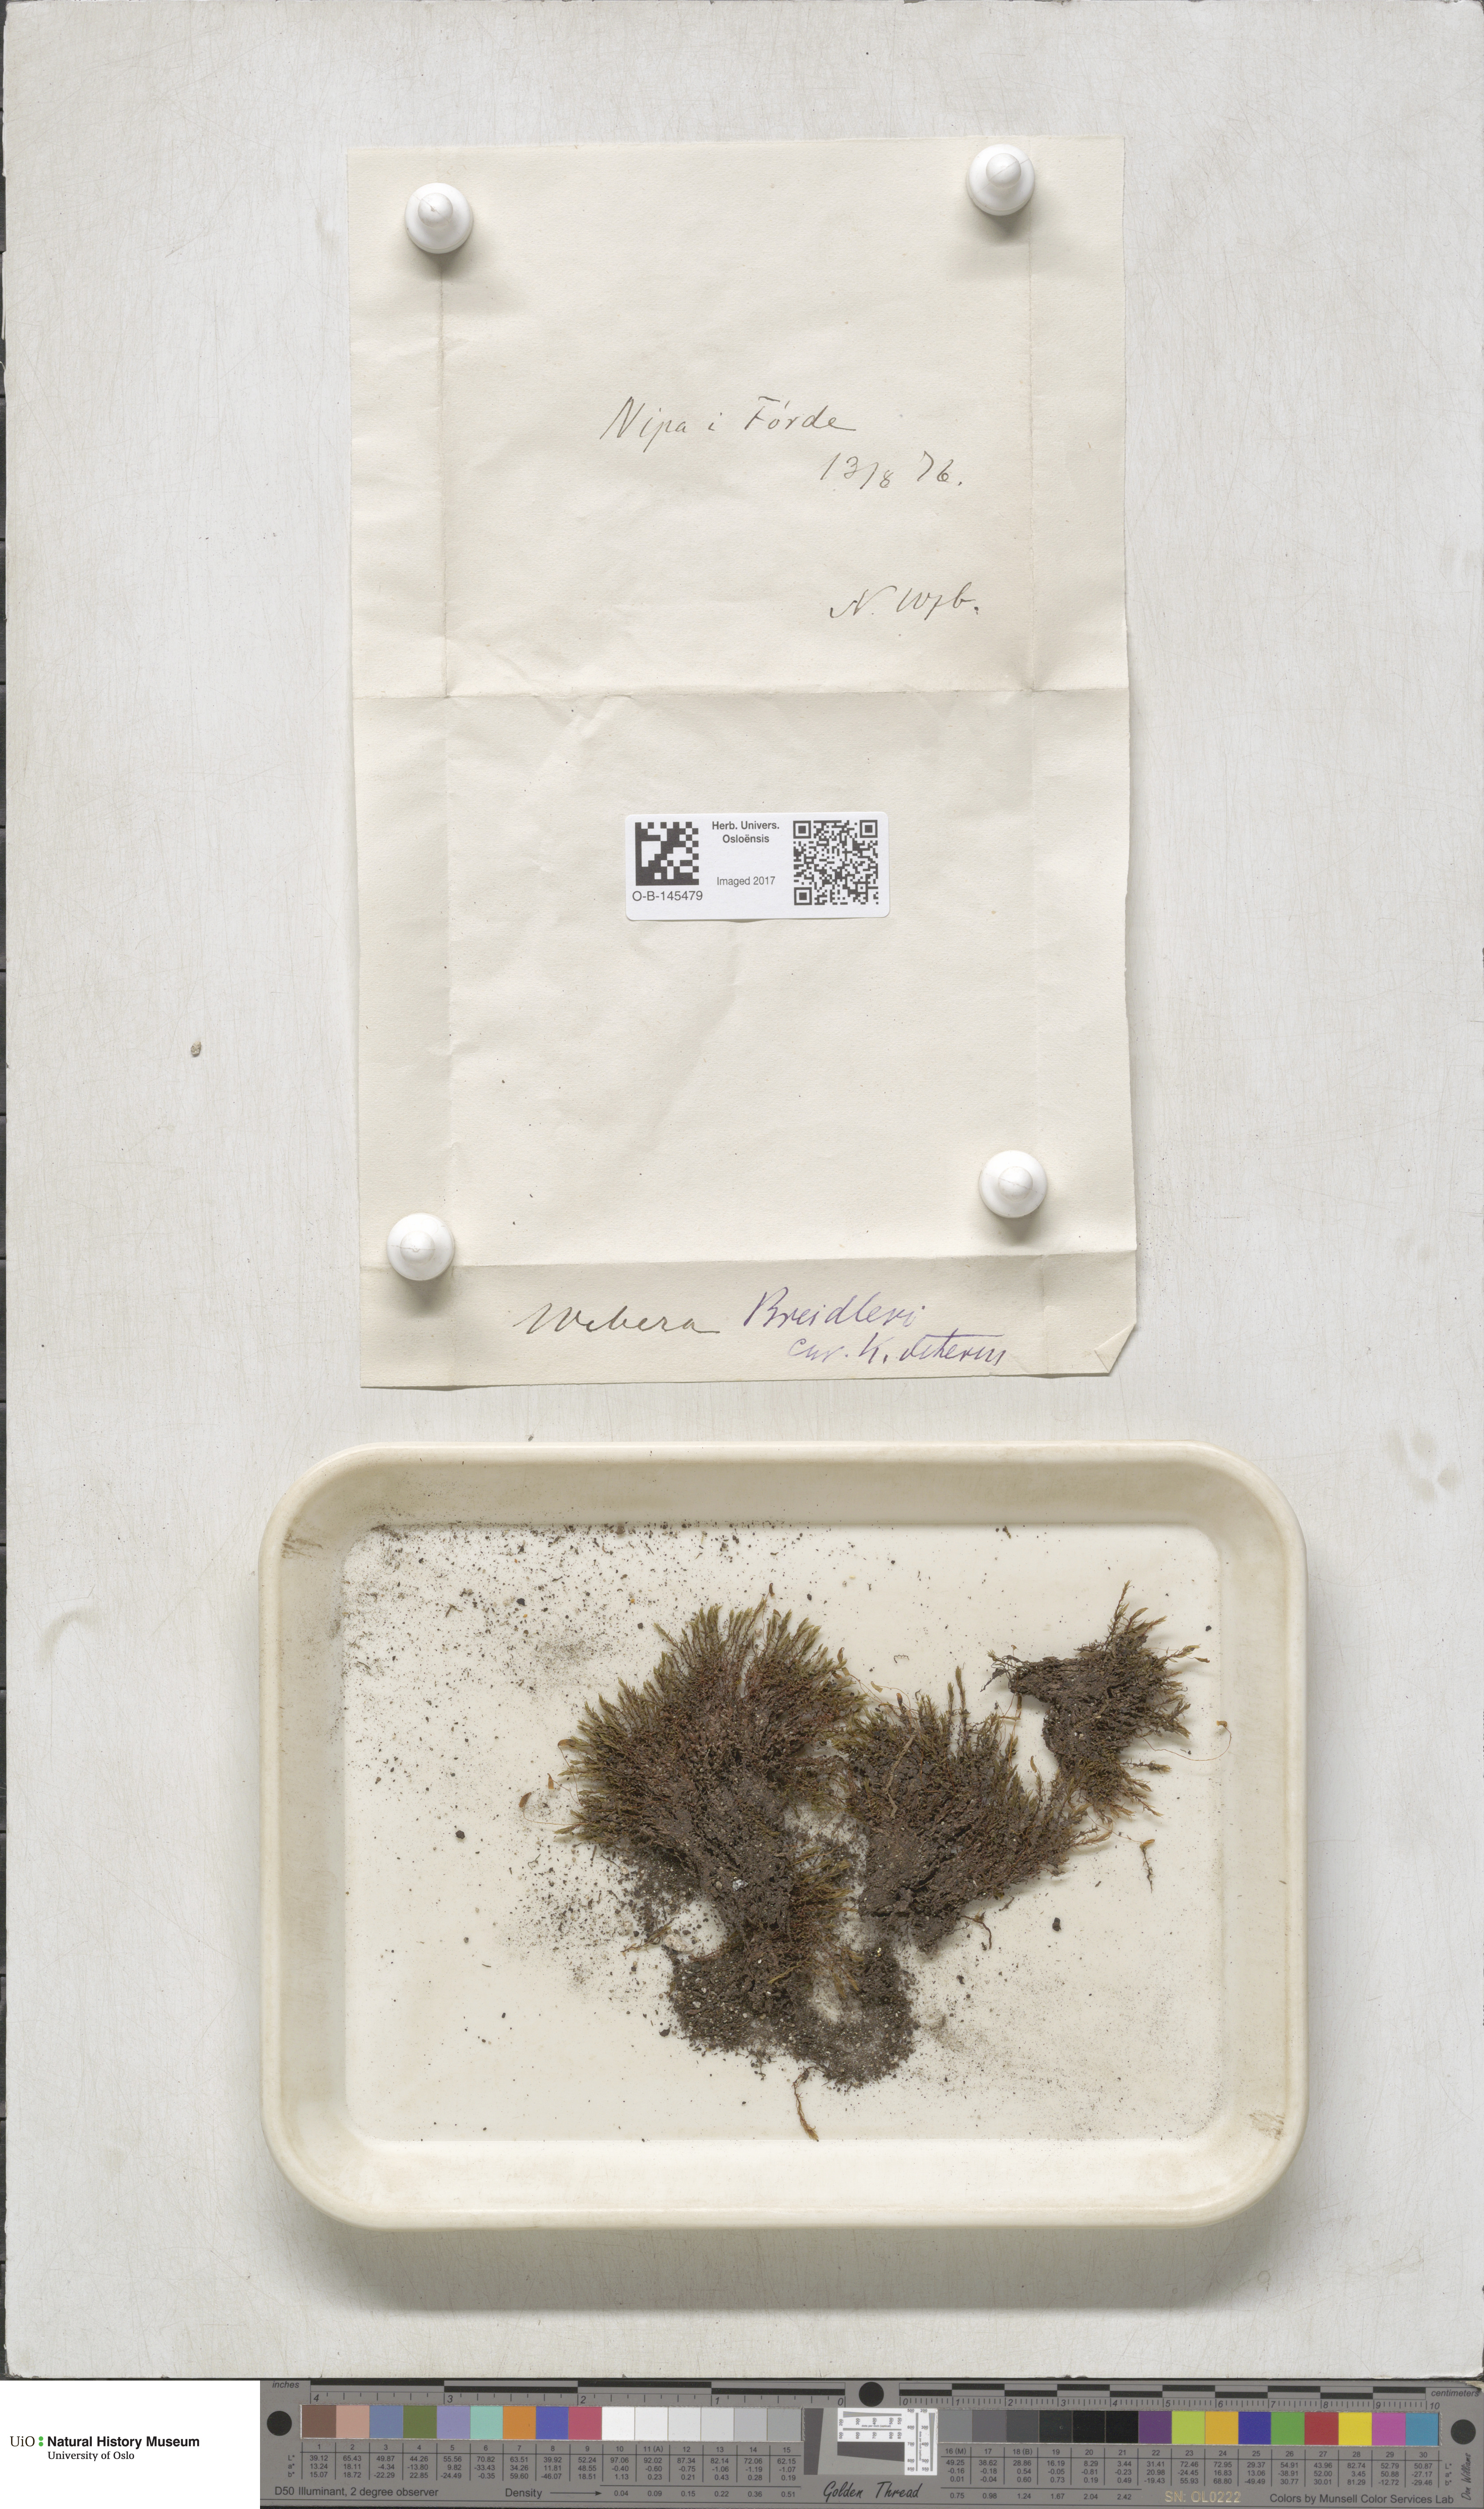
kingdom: Plantae
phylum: Bryophyta
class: Bryopsida
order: Bryales
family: Mniaceae
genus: Pohlia
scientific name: Pohlia ludwigii
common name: Ludwig's thread-moss
